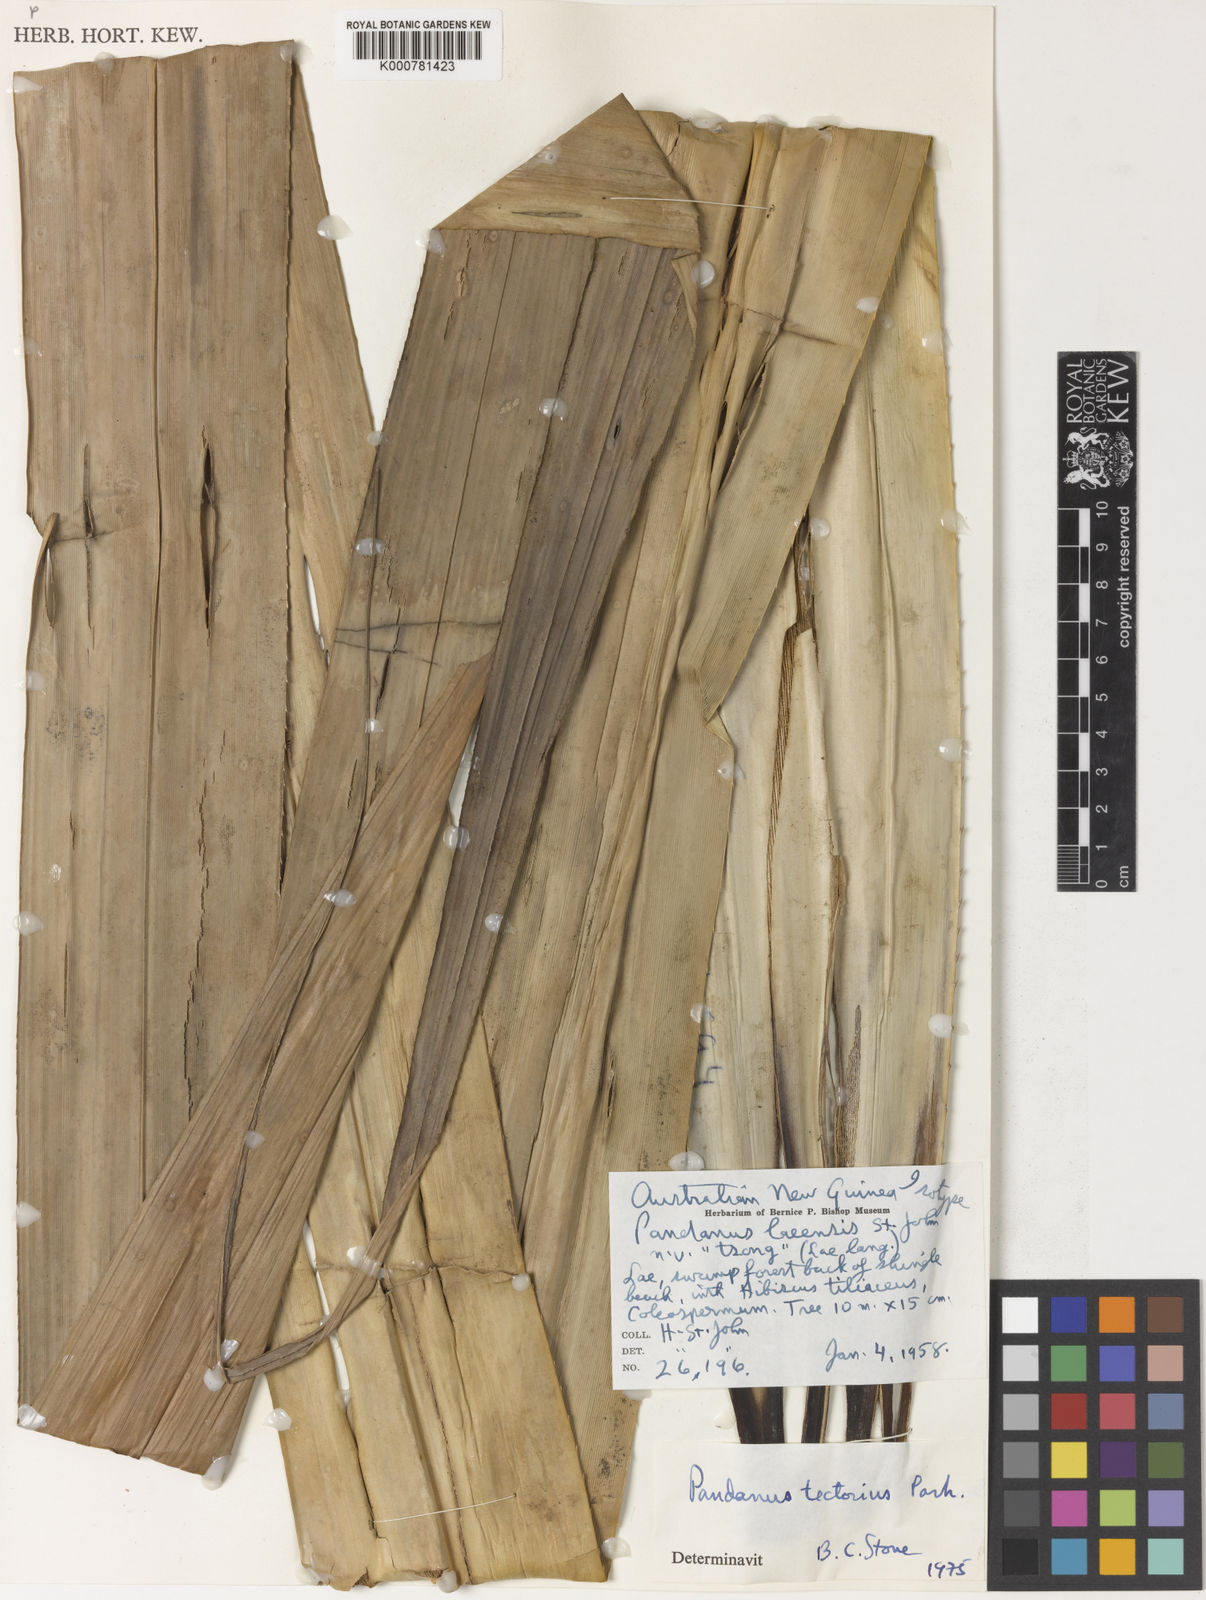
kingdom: Plantae
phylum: Tracheophyta
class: Liliopsida
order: Pandanales
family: Pandanaceae
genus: Pandanus
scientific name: Pandanus
